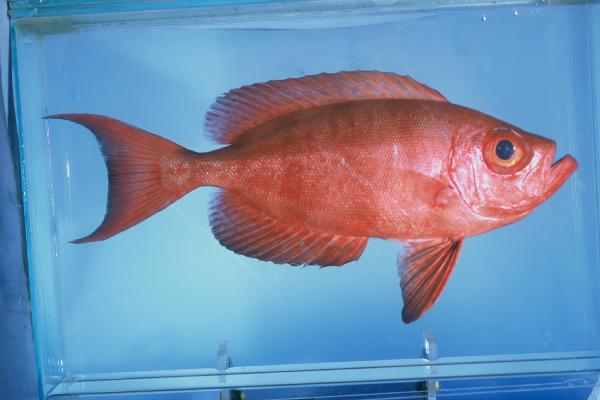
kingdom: Animalia
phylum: Chordata
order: Perciformes
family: Priacanthidae
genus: Priacanthus
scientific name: Priacanthus hamrur
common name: Moontail bullseye
